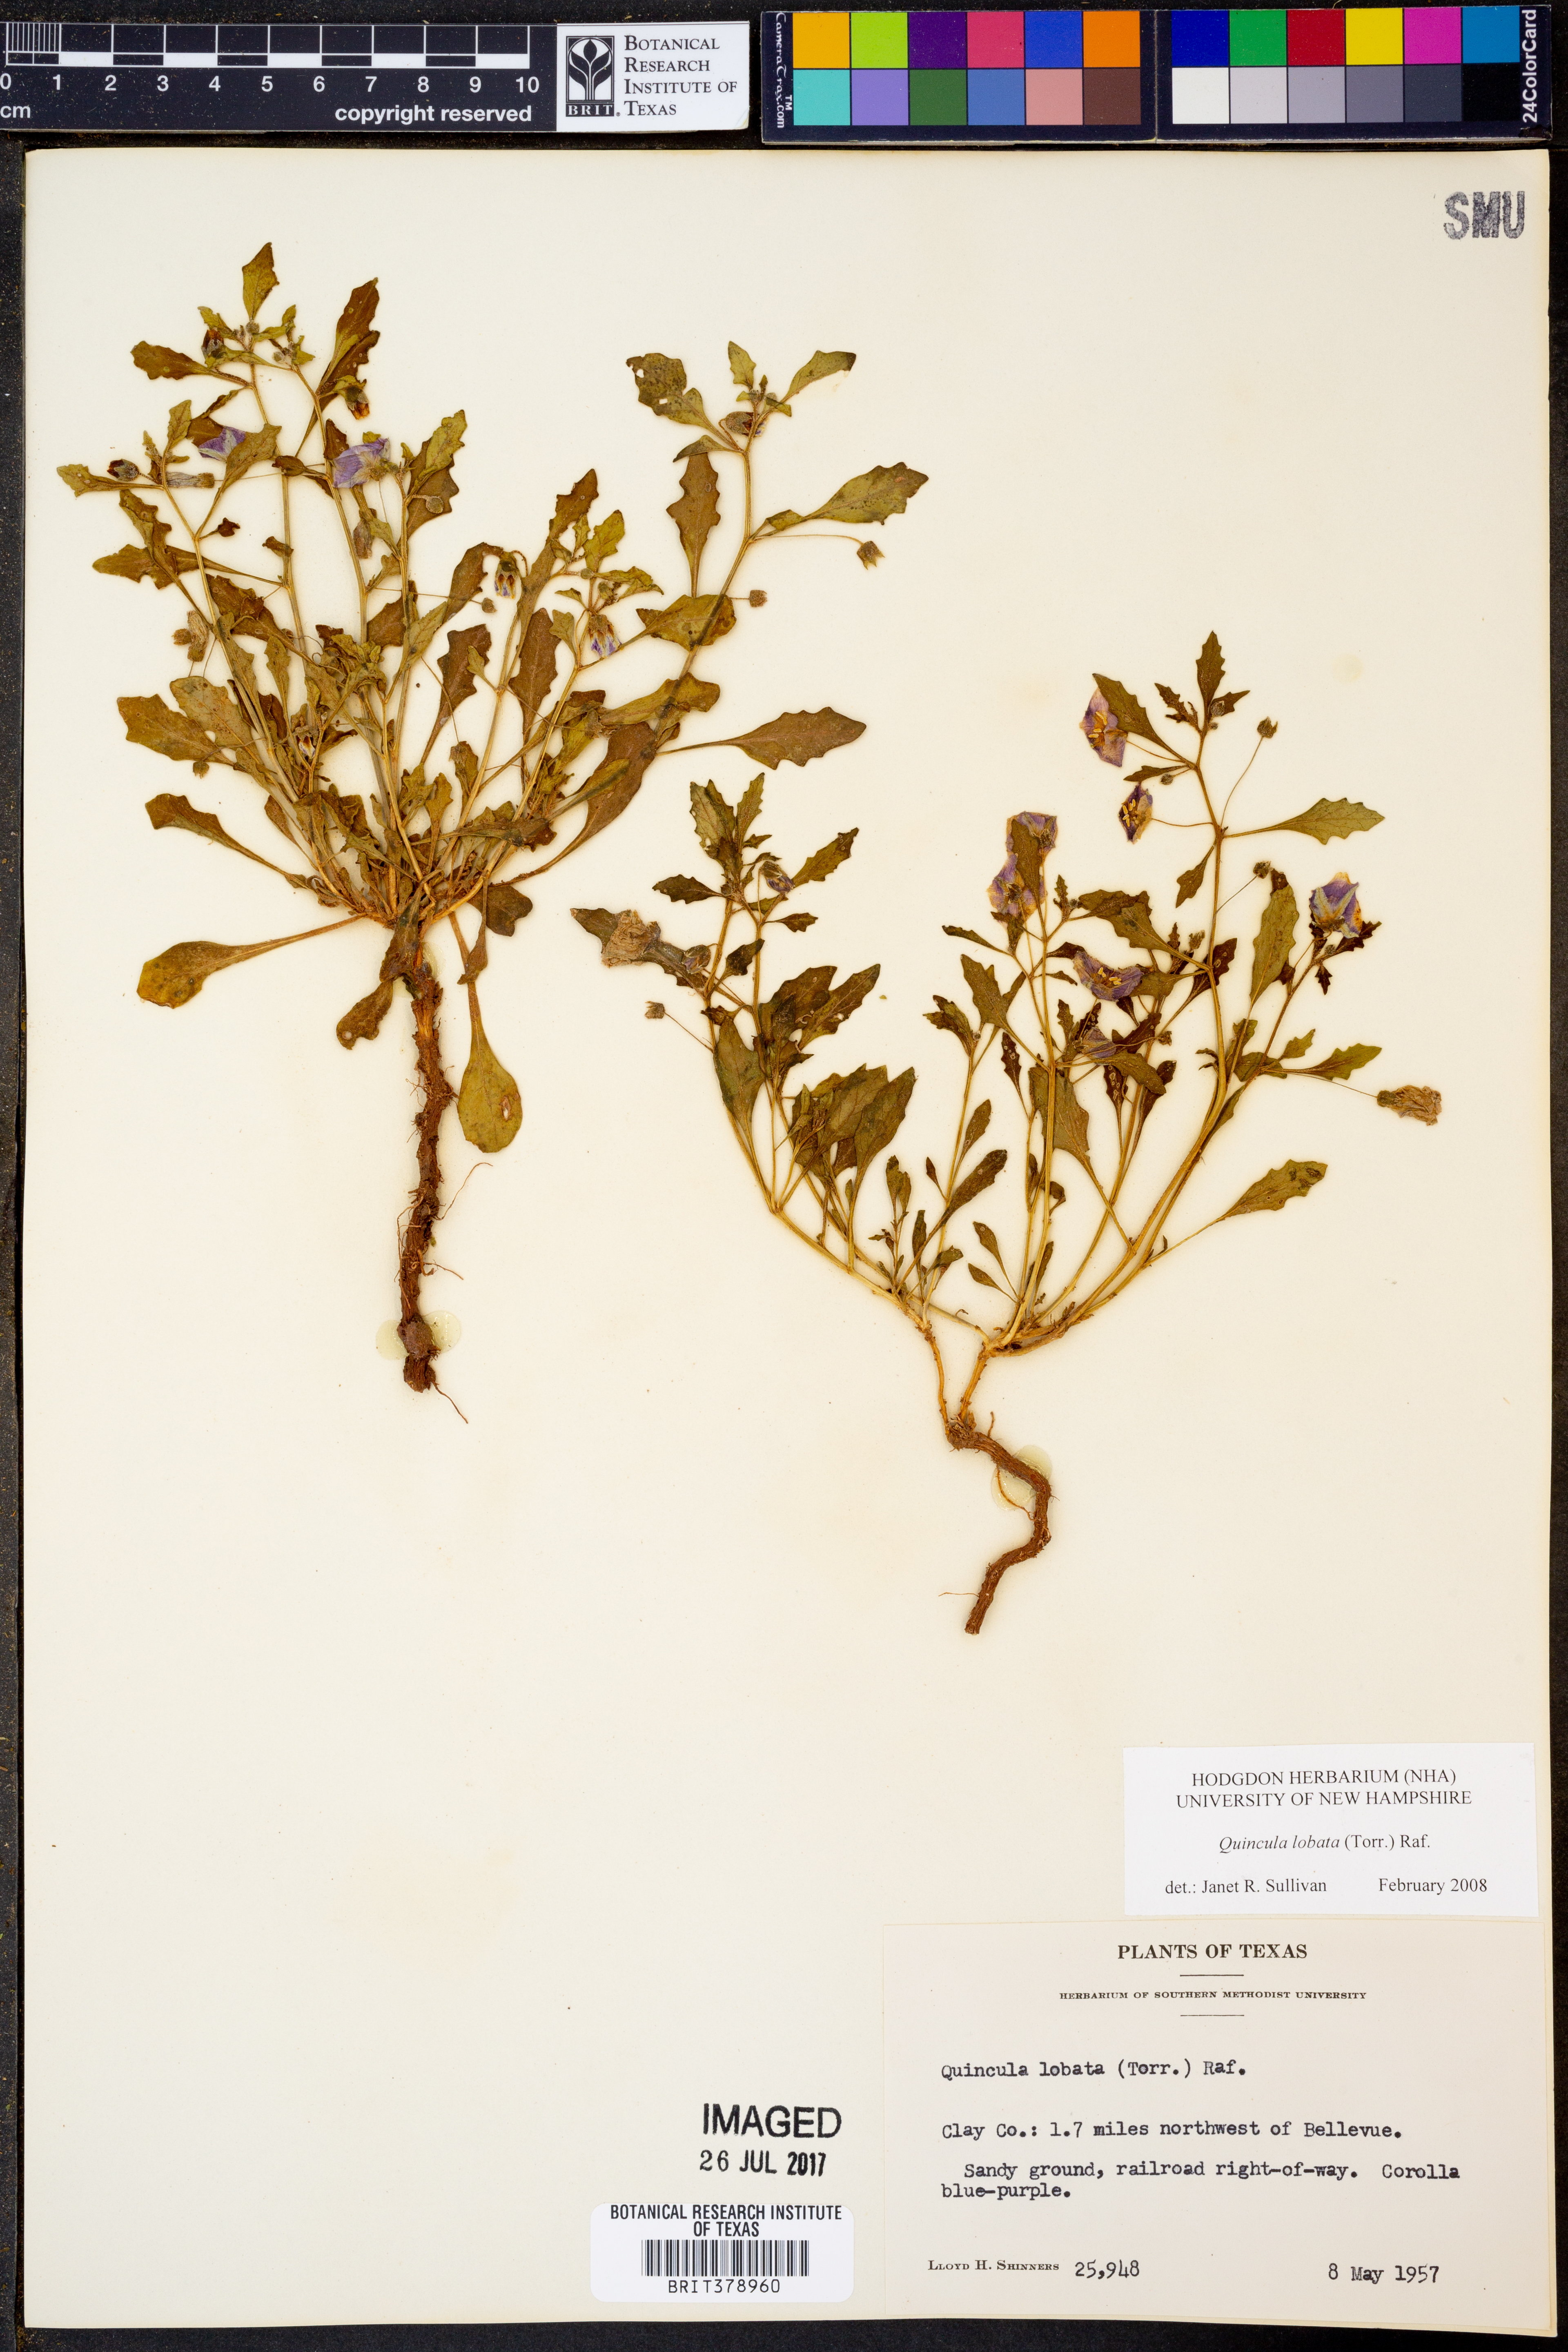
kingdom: Plantae
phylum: Tracheophyta
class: Magnoliopsida
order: Solanales
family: Solanaceae
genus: Quincula
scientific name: Quincula lobata
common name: Purple-ground-cherry
